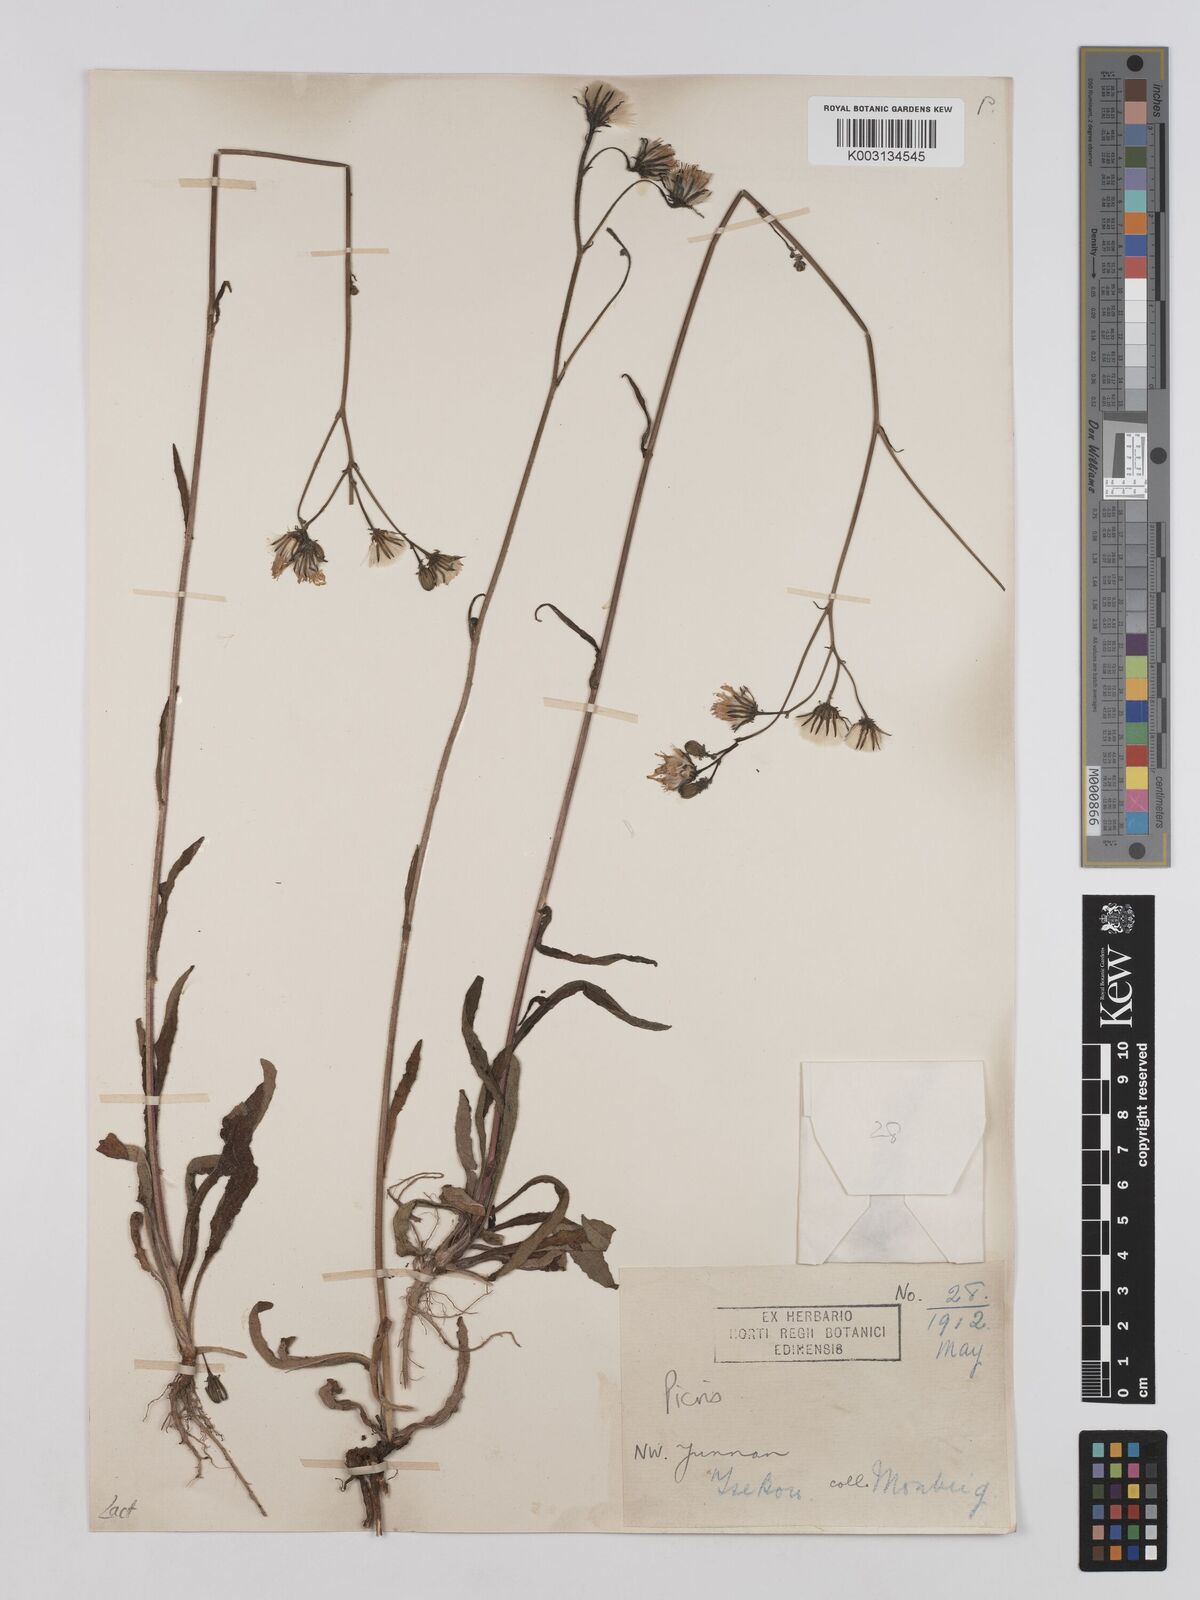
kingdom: Plantae
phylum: Tracheophyta
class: Magnoliopsida
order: Asterales
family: Asteraceae
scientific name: Asteraceae
